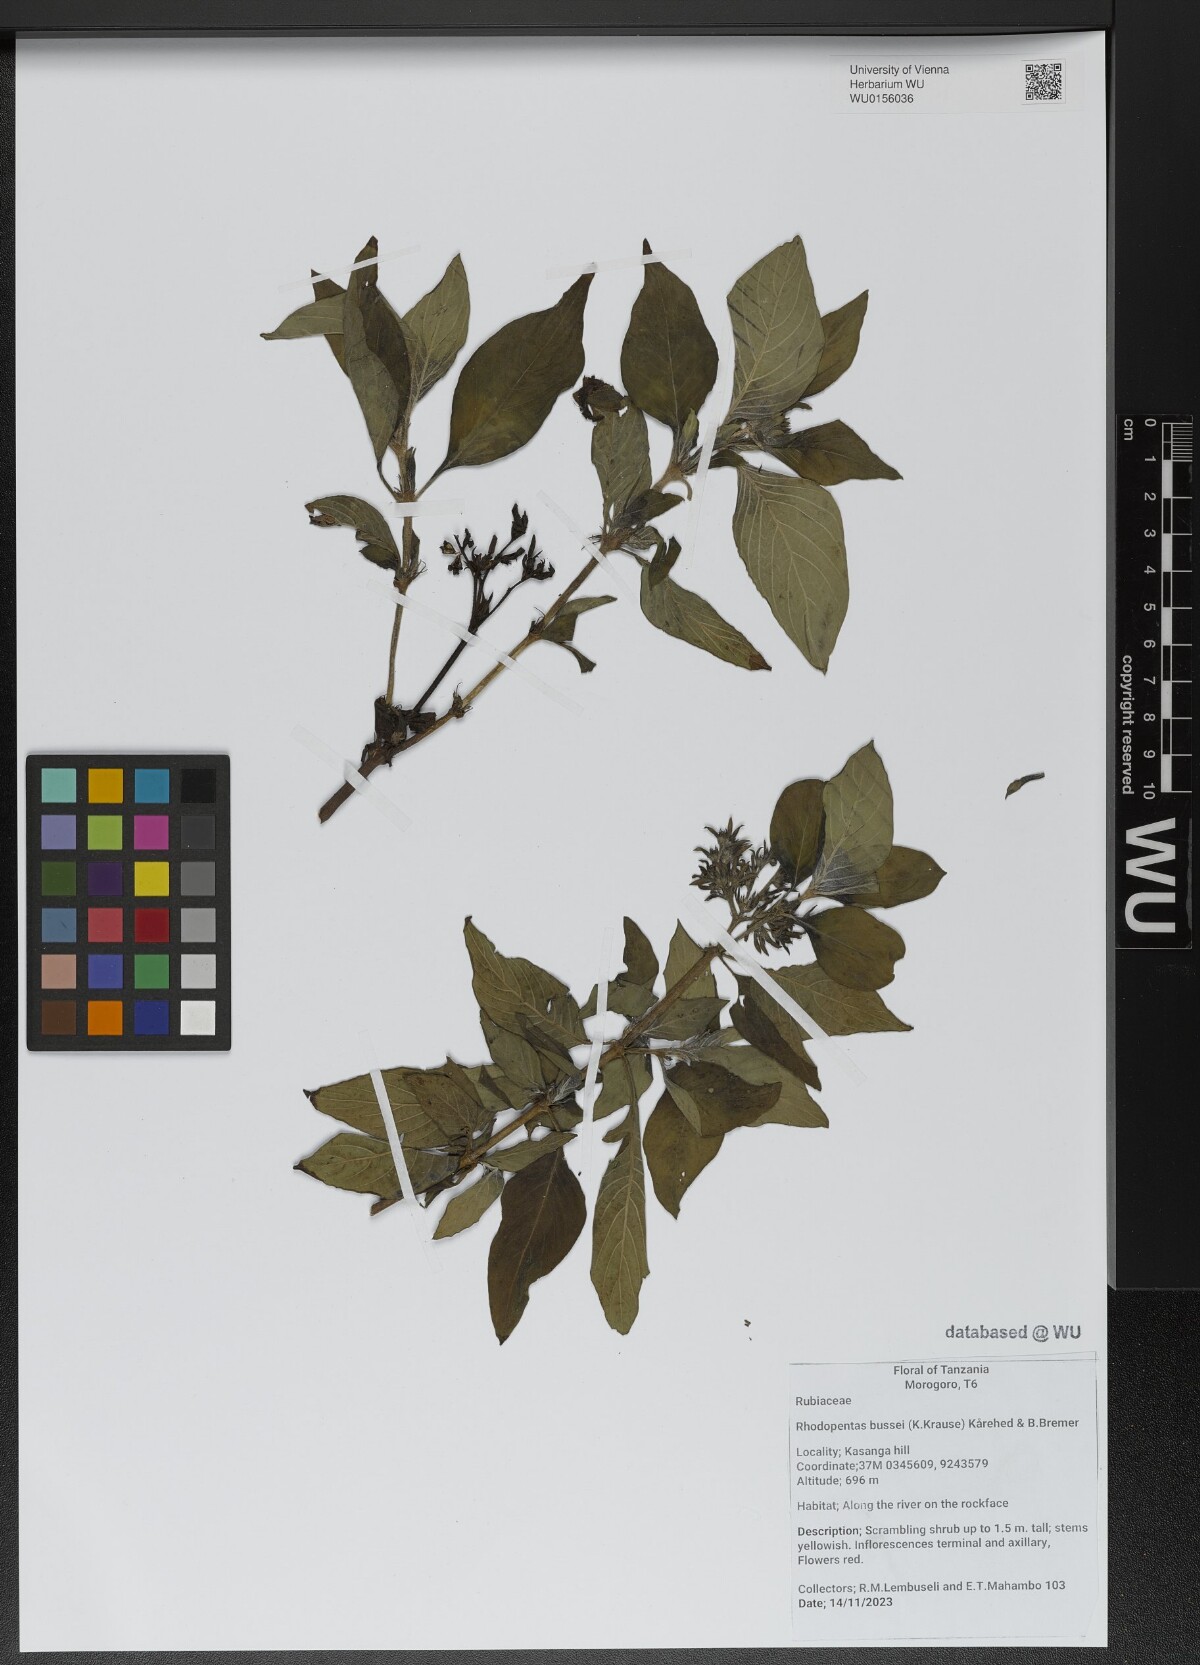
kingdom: Plantae
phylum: Tracheophyta
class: Magnoliopsida
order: Gentianales
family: Rubiaceae
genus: Rhodopentas
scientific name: Rhodopentas bussei
